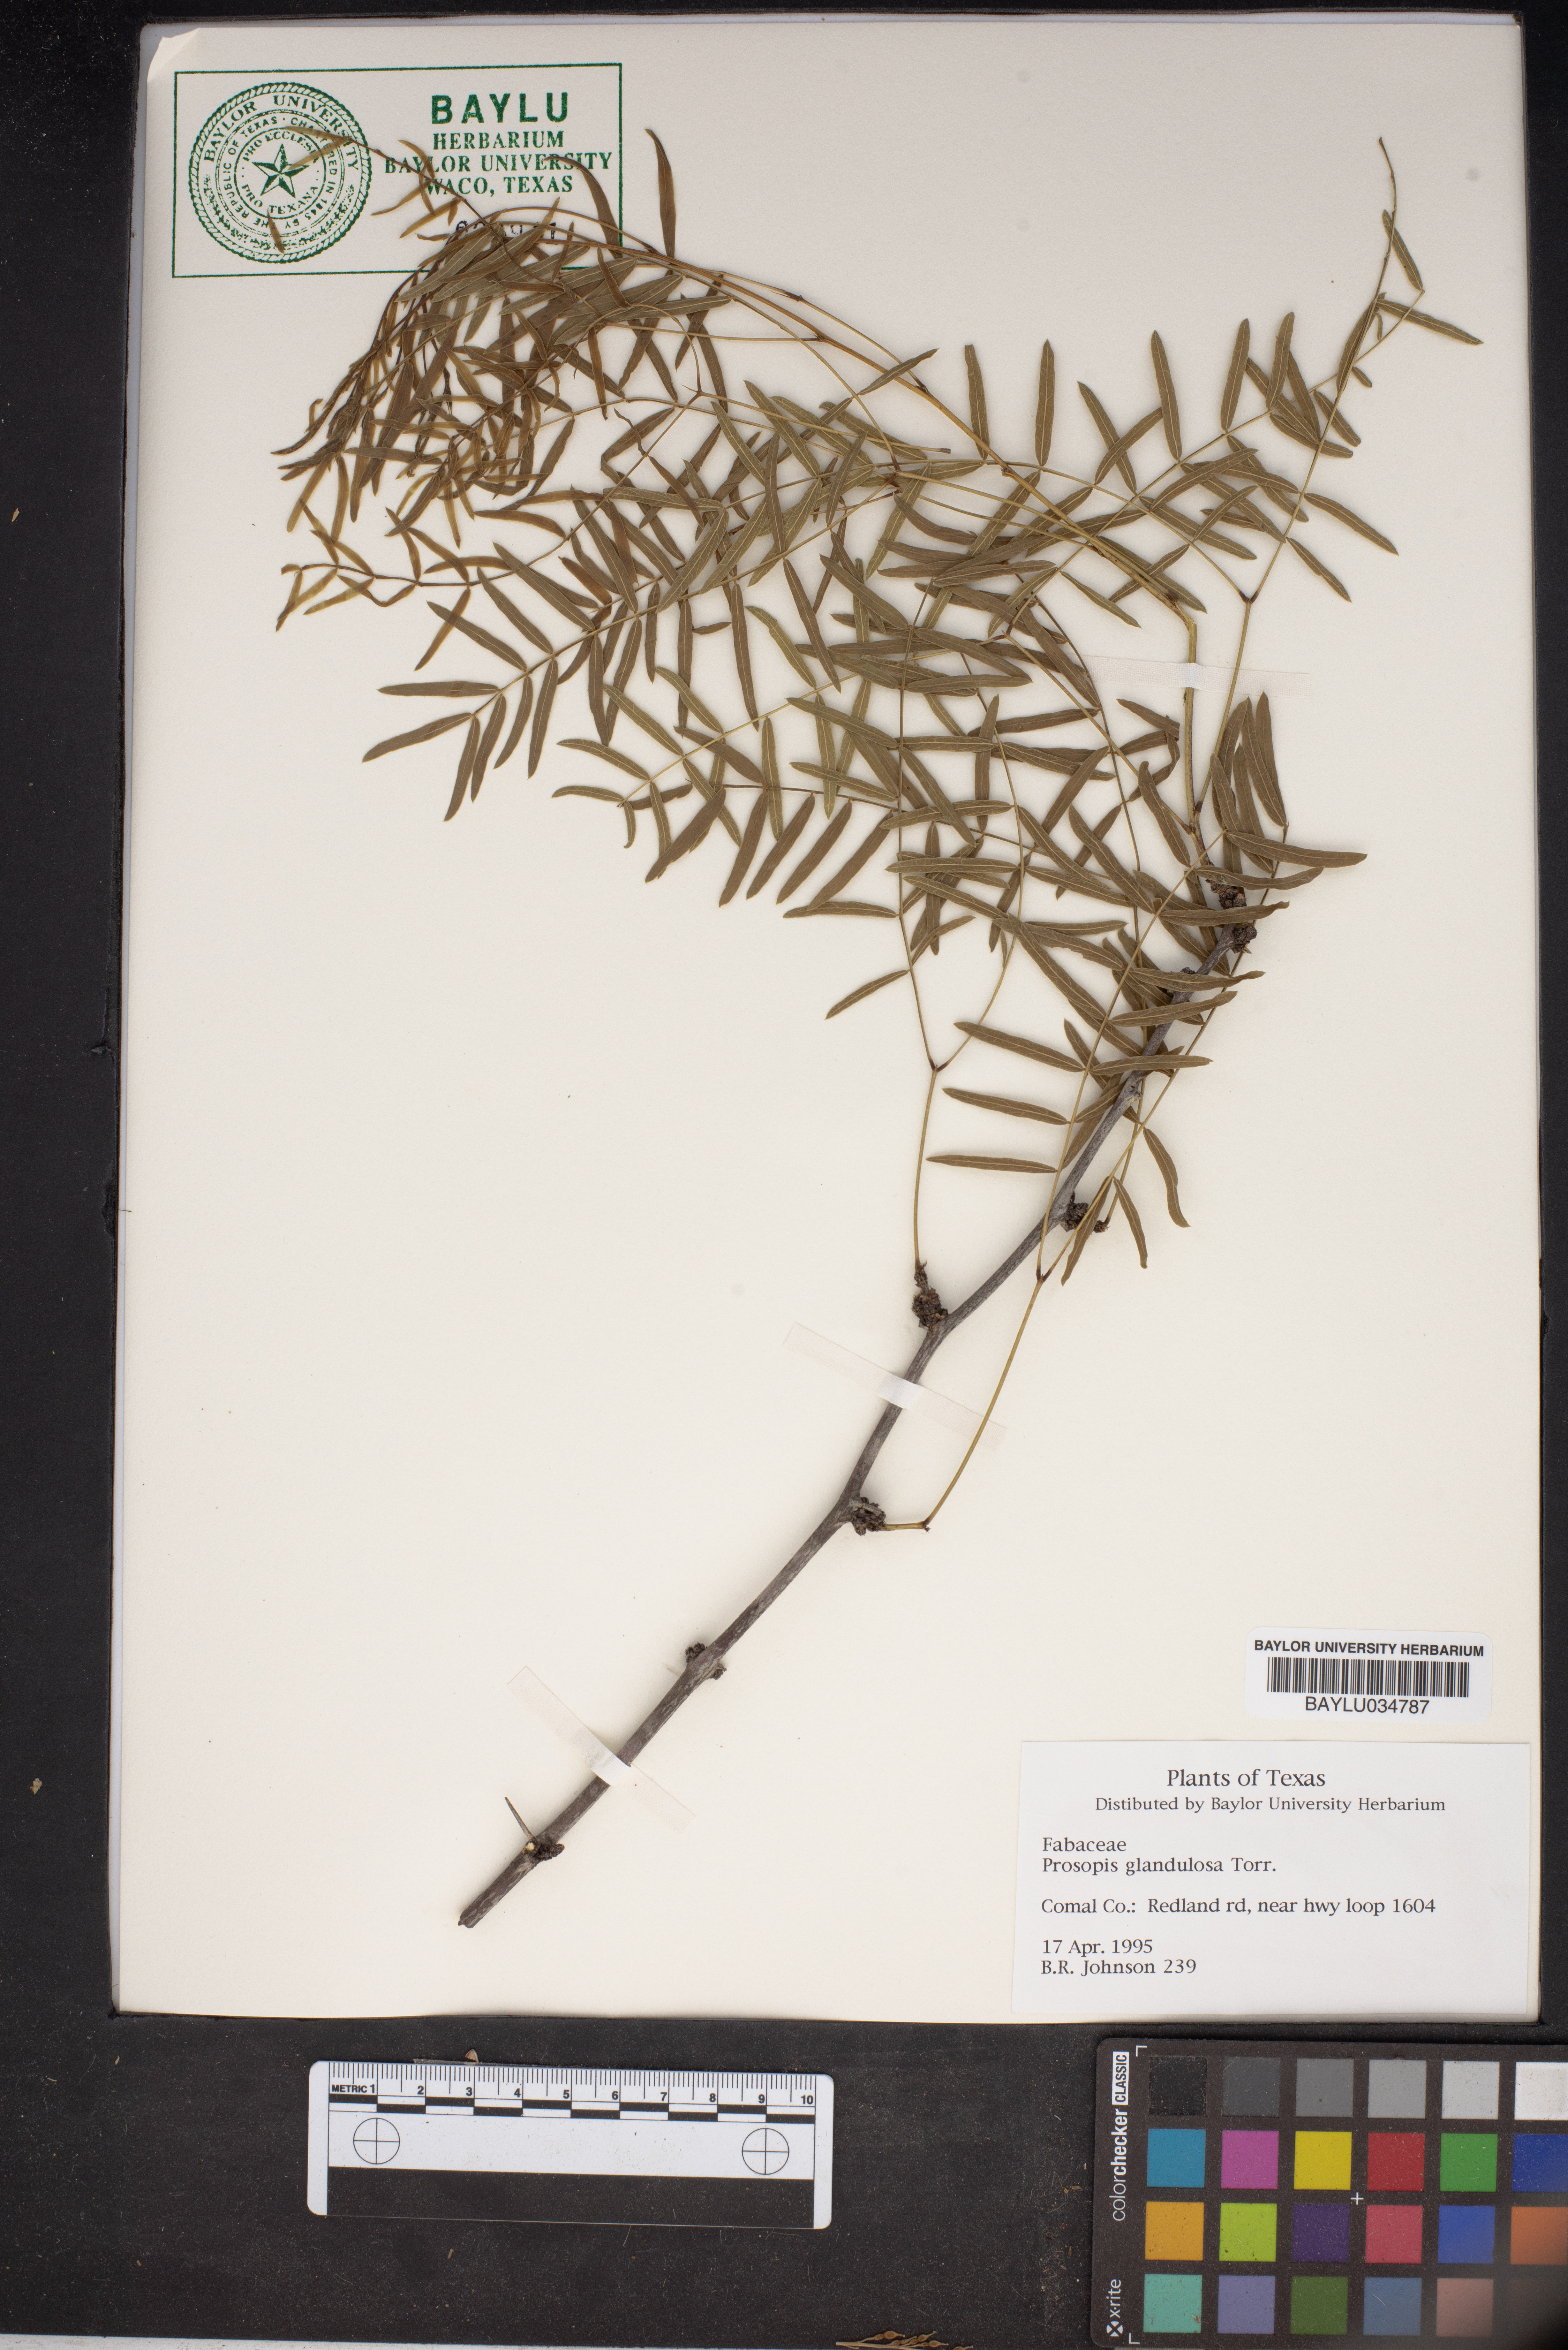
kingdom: Plantae
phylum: Tracheophyta
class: Magnoliopsida
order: Fabales
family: Fabaceae
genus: Prosopis
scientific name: Prosopis glandulosa
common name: Honey mesquite
